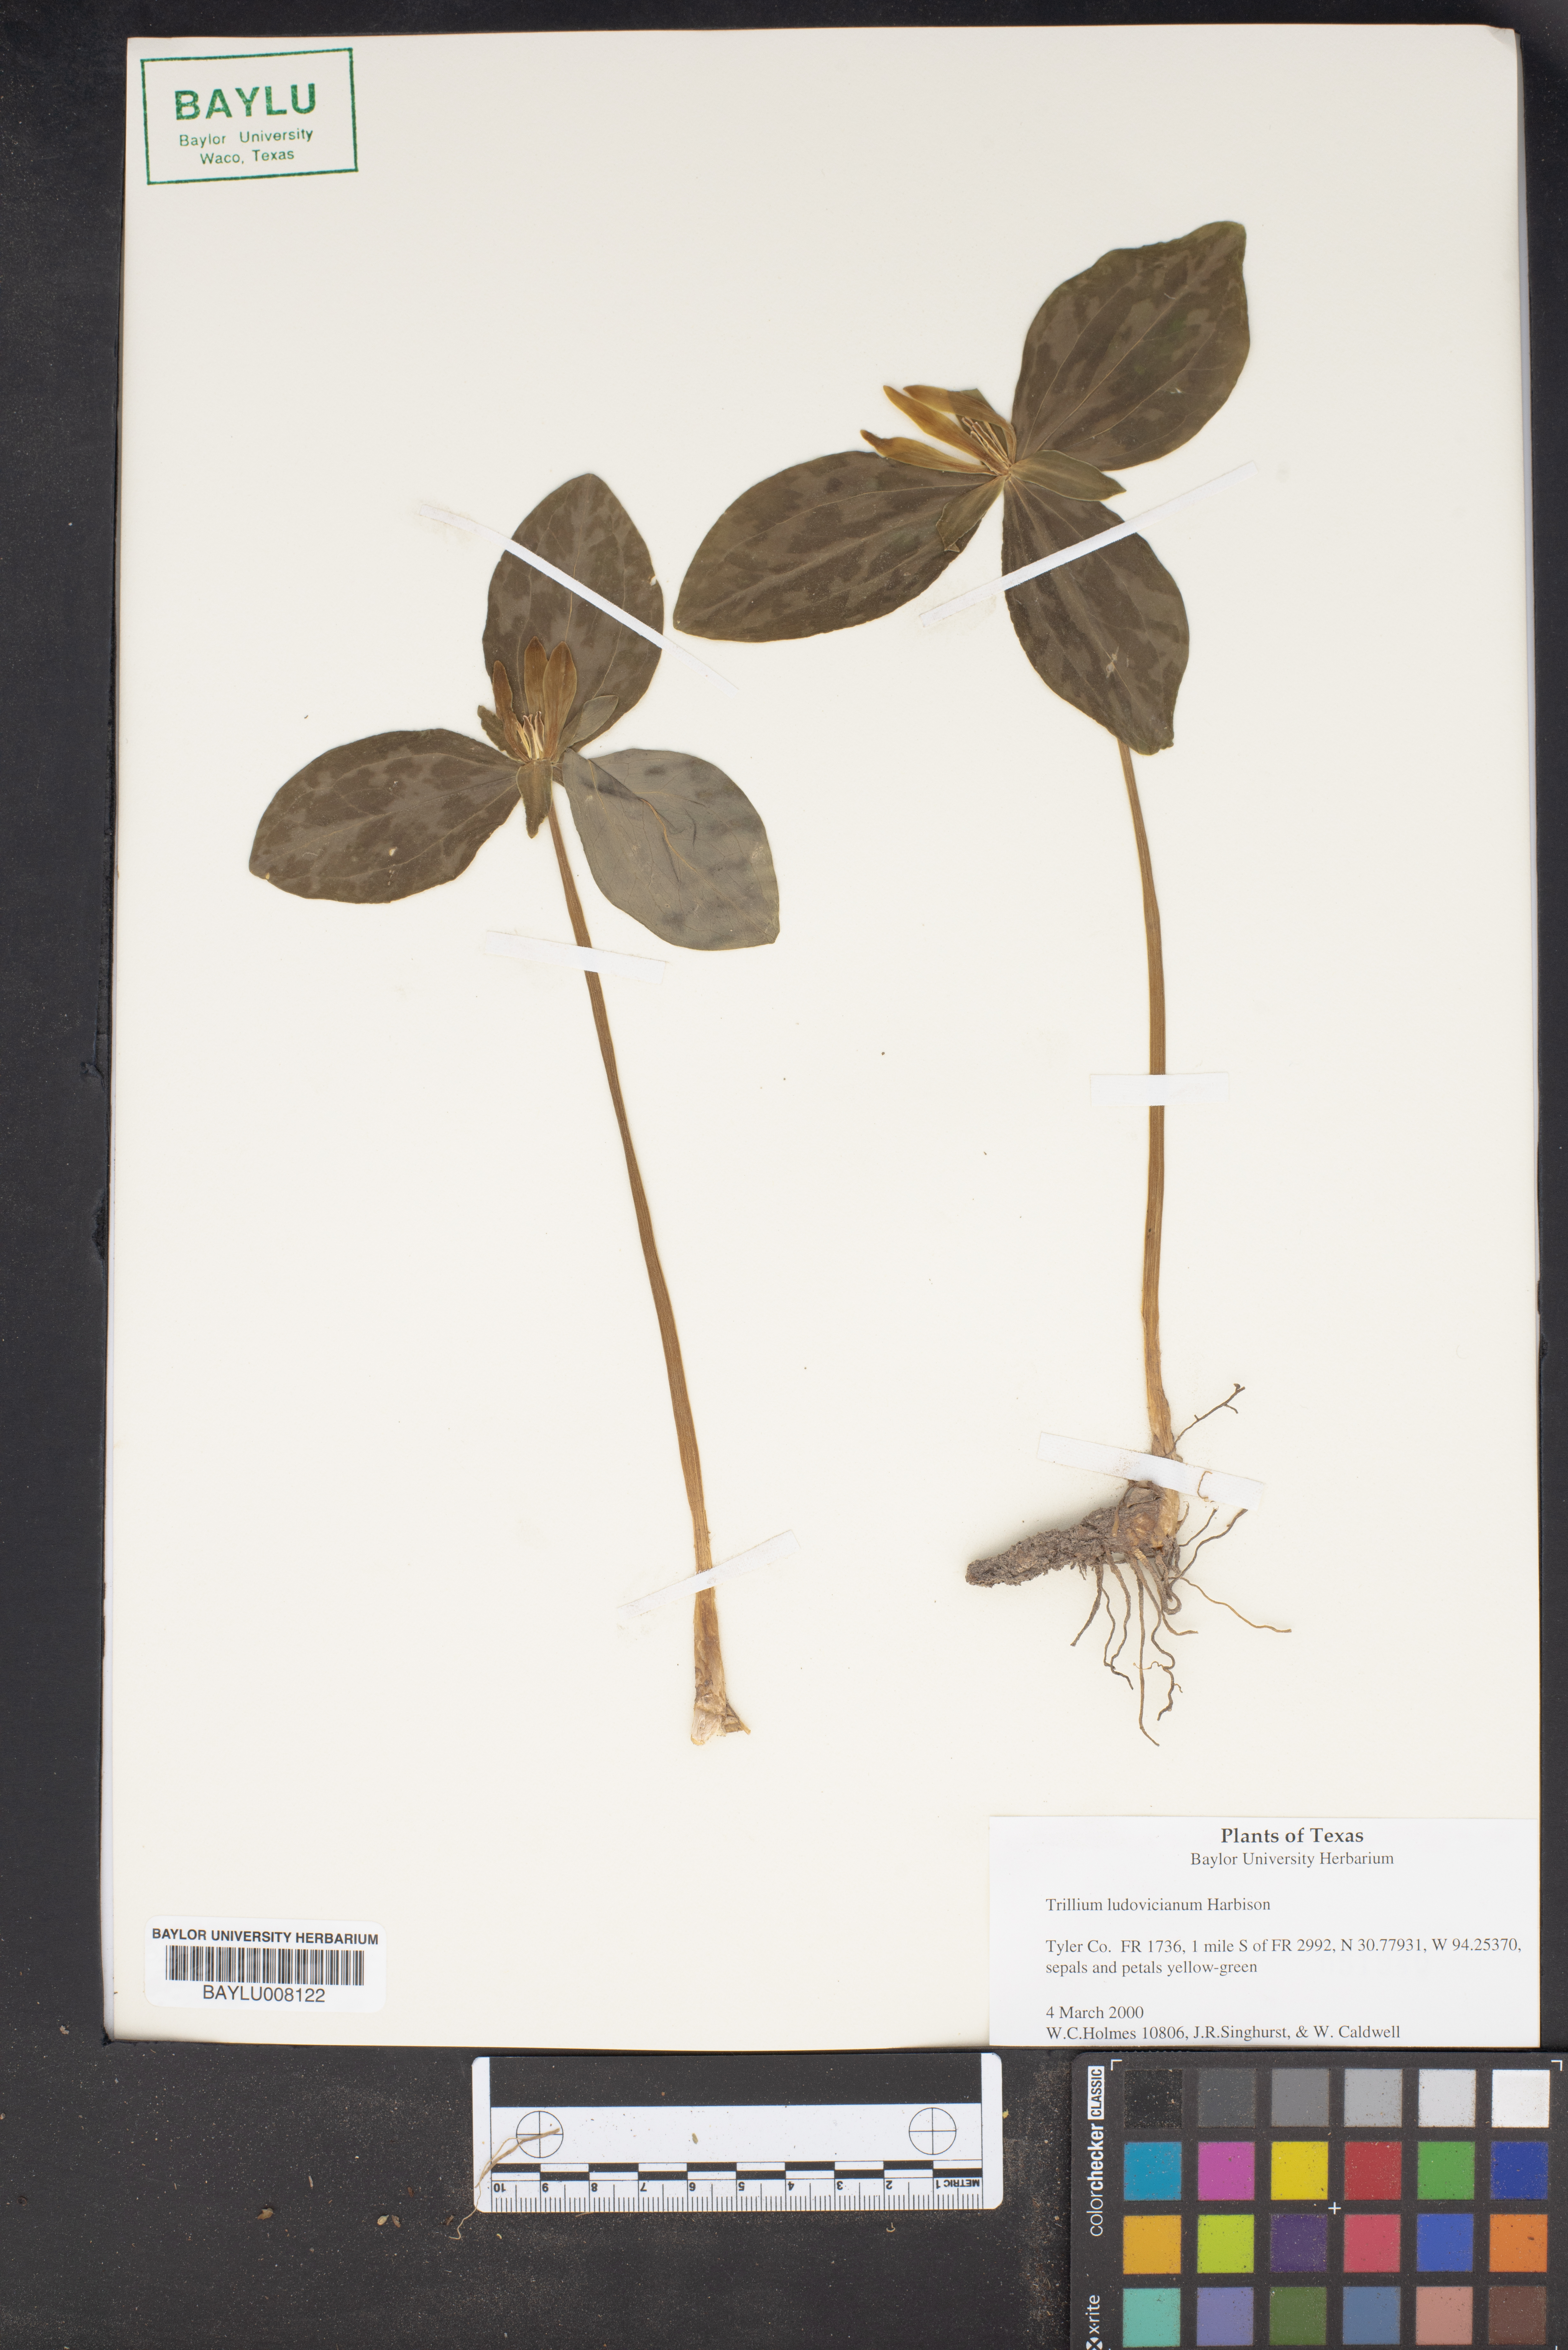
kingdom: Plantae
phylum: Tracheophyta
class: Liliopsida
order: Liliales
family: Melanthiaceae
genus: Trillium
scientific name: Trillium ludovicianum
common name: Louisiana toadshade
